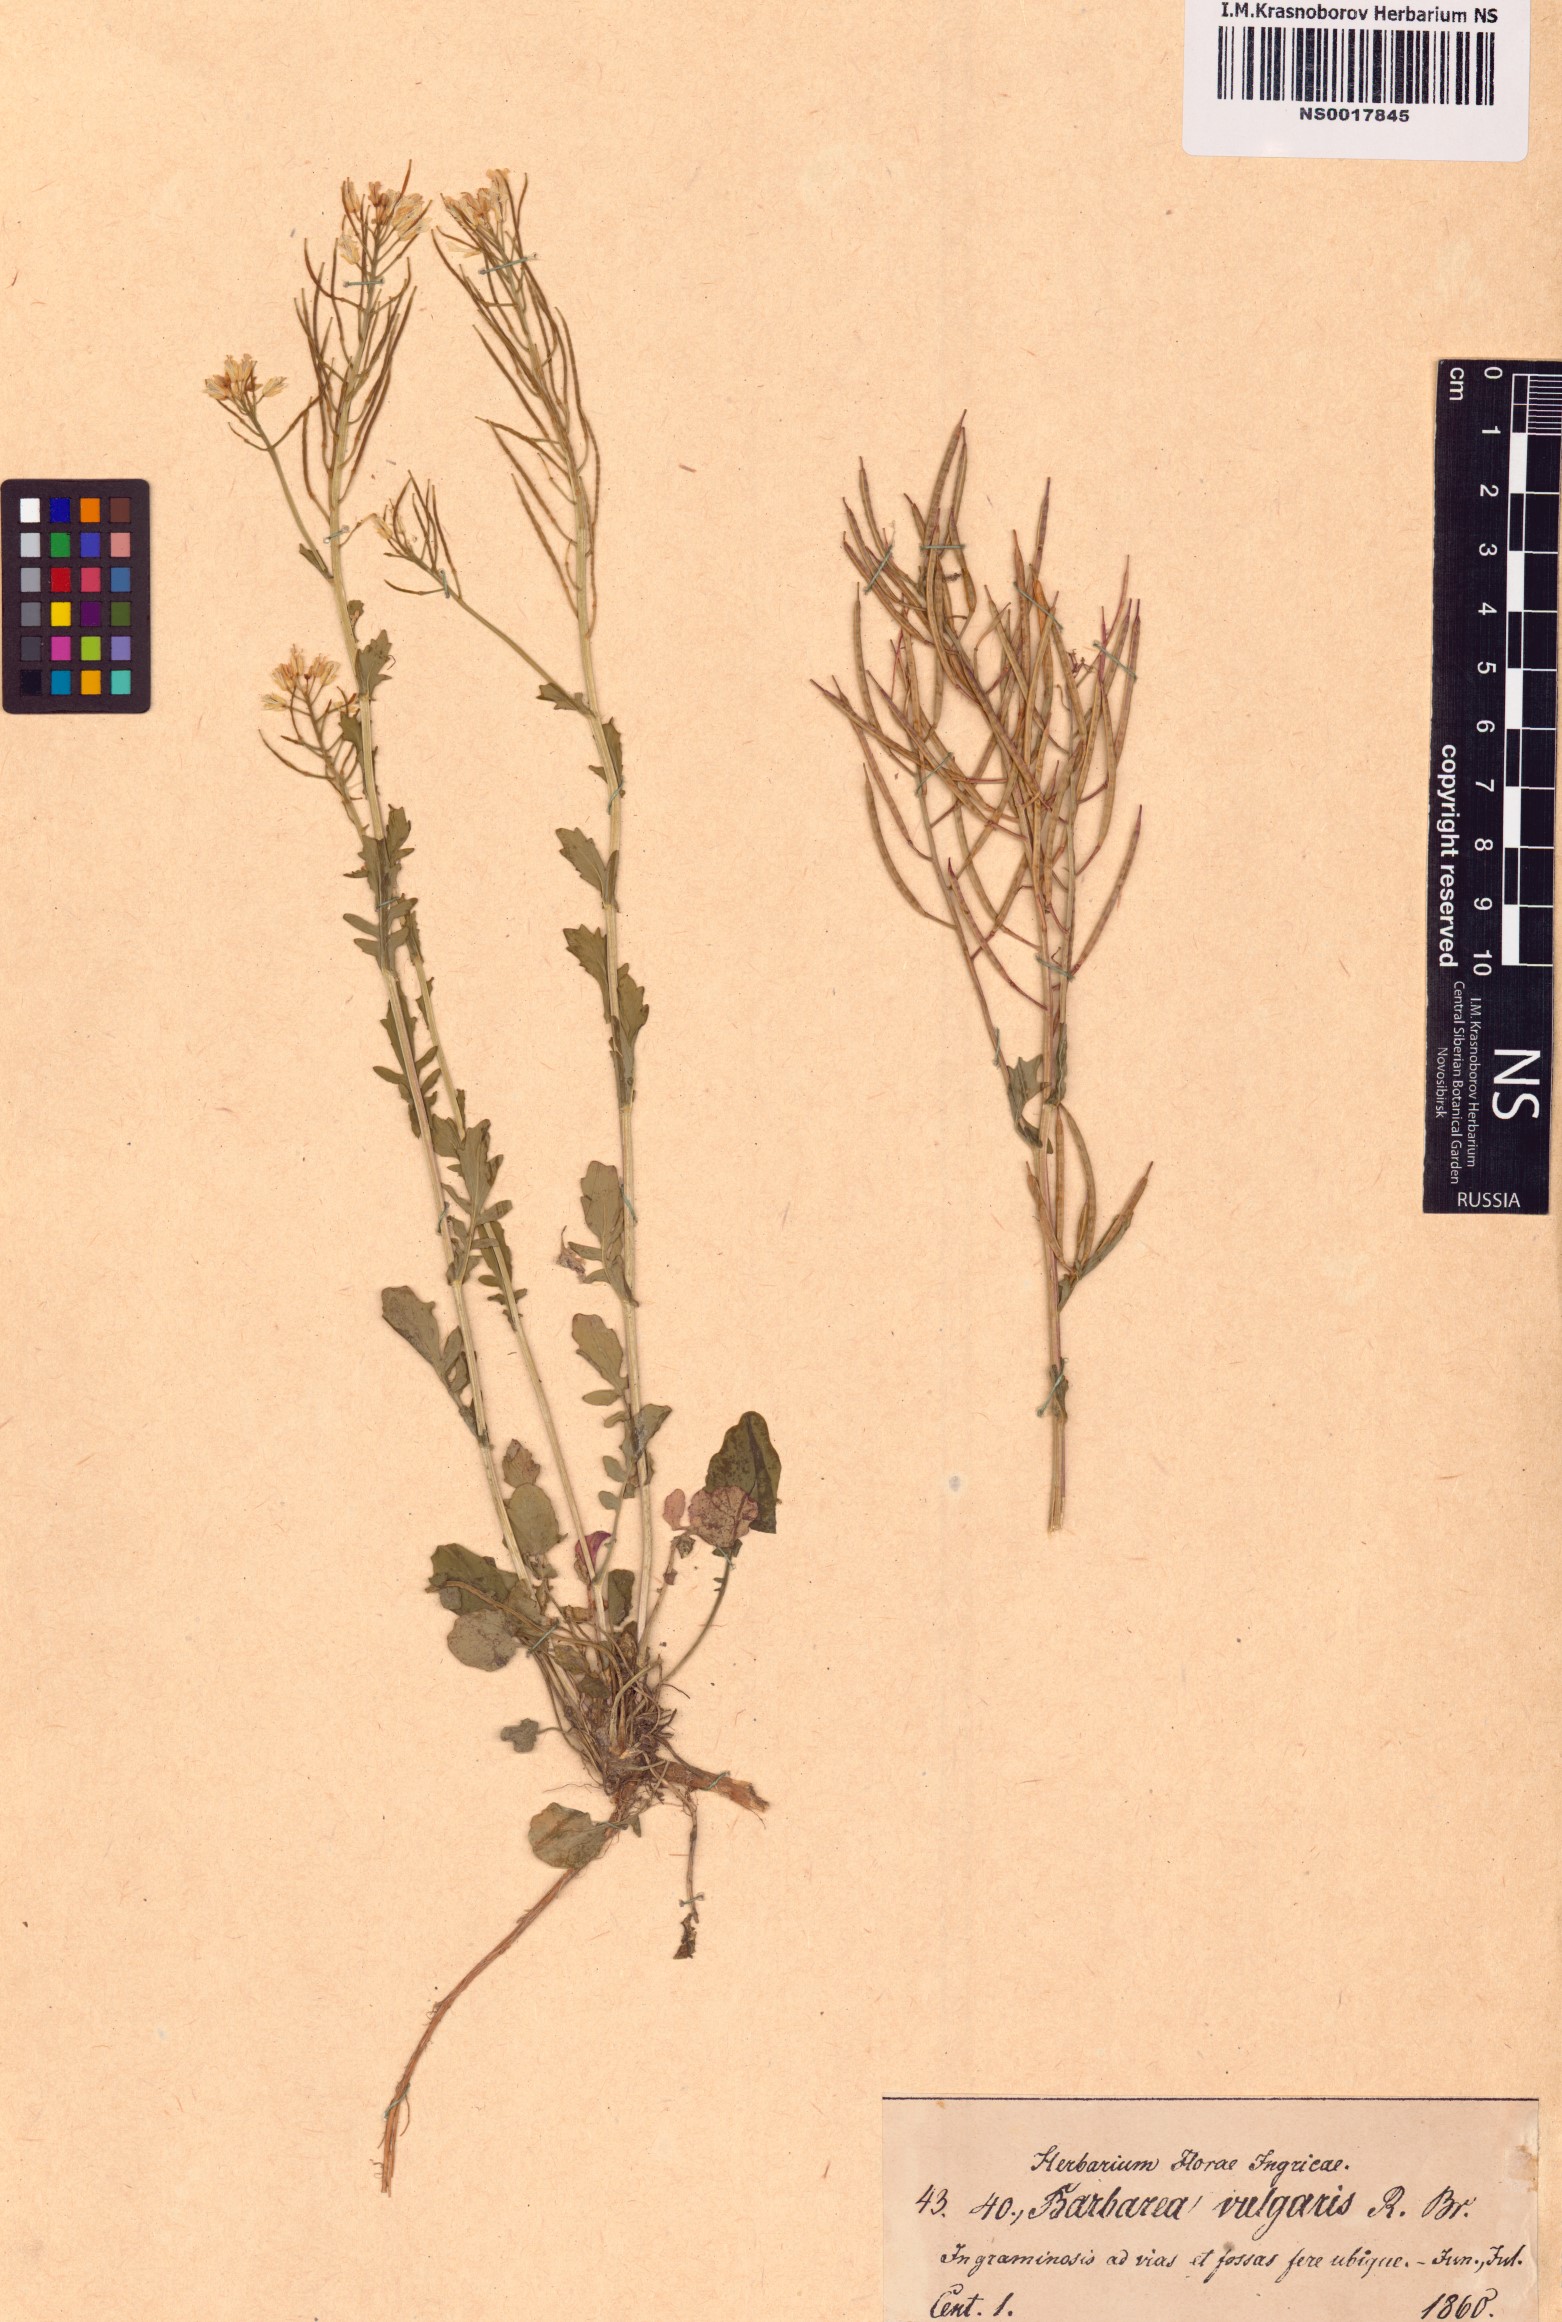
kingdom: Plantae
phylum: Tracheophyta
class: Magnoliopsida
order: Brassicales
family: Brassicaceae
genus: Barbarea
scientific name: Barbarea vulgaris
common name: Cressy-greens
